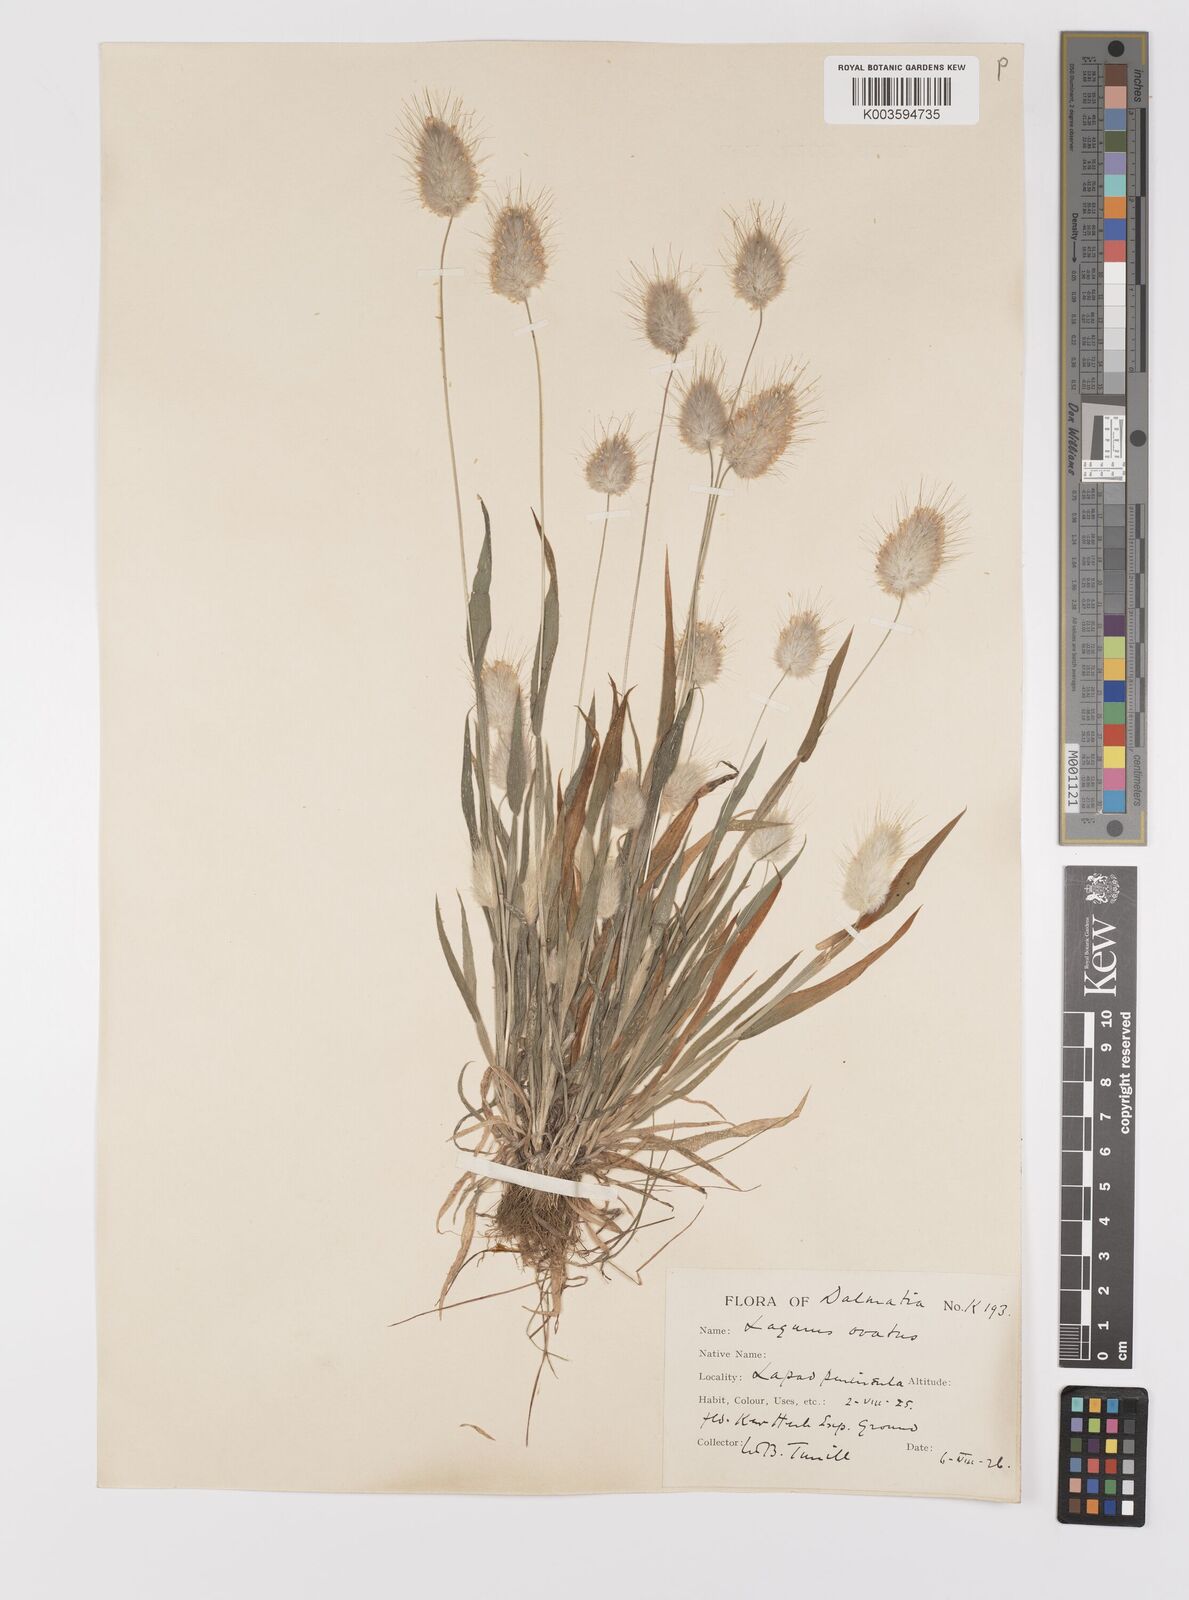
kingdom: Plantae
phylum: Tracheophyta
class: Liliopsida
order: Poales
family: Poaceae
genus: Lagurus
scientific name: Lagurus ovatus
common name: Hare's-tail
